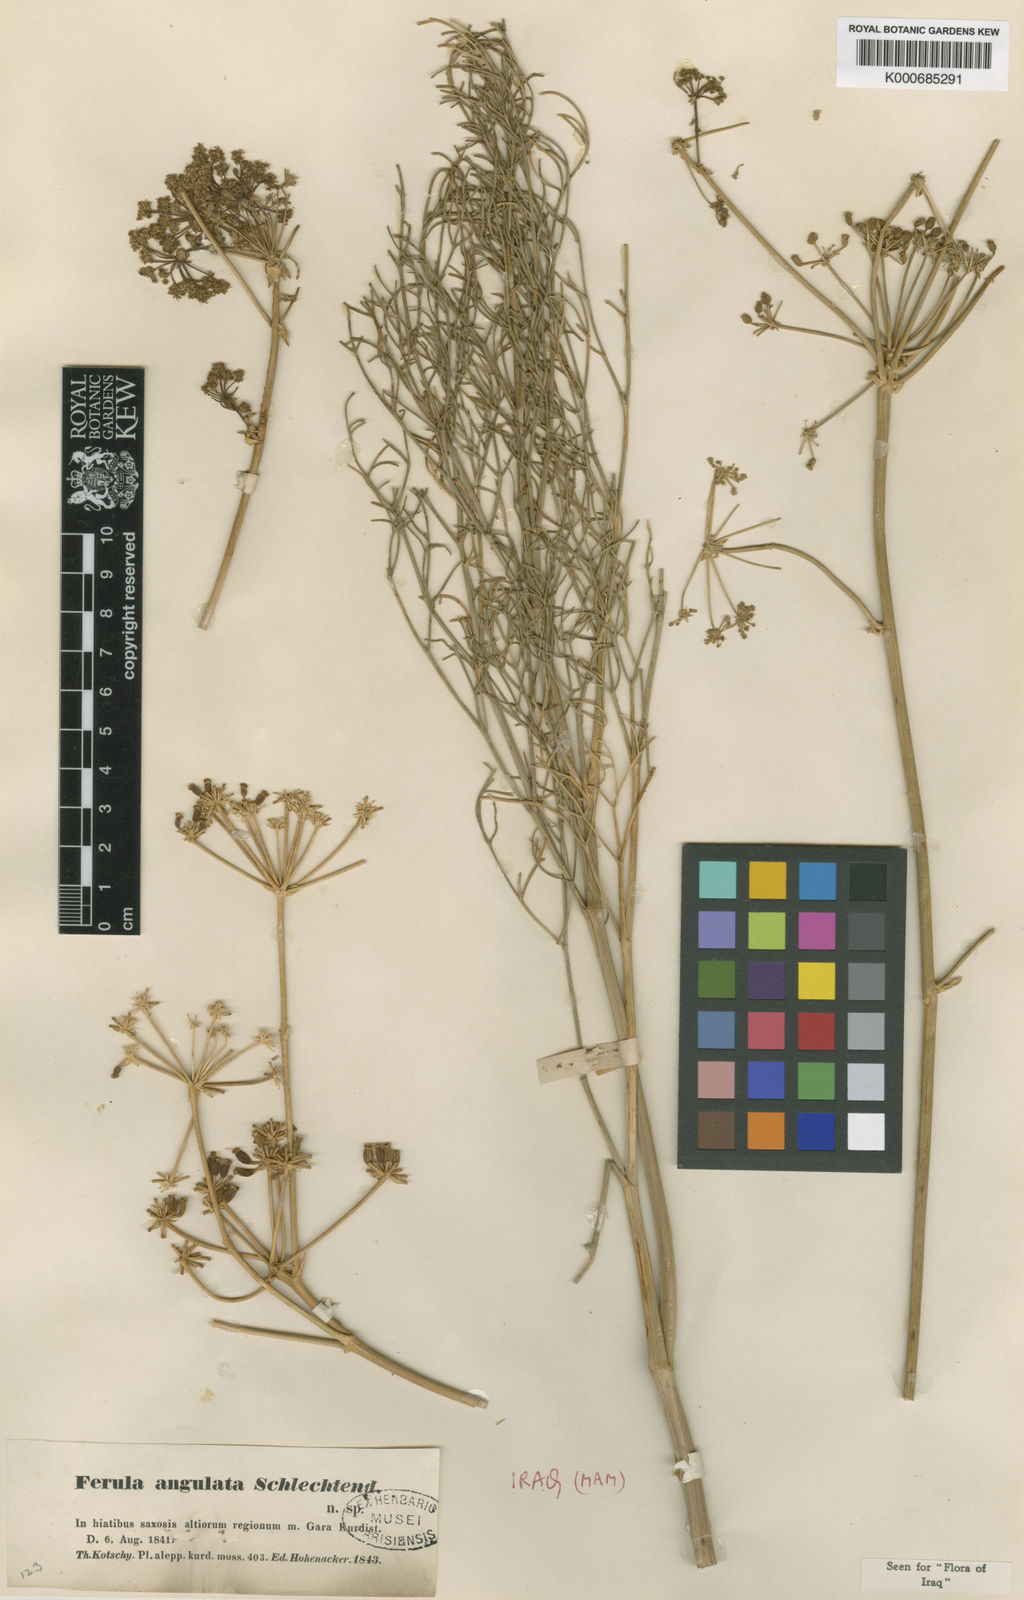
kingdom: Plantae
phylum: Tracheophyta
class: Magnoliopsida
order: Apiales
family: Apiaceae
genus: Ferulago
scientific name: Ferulago angulata
